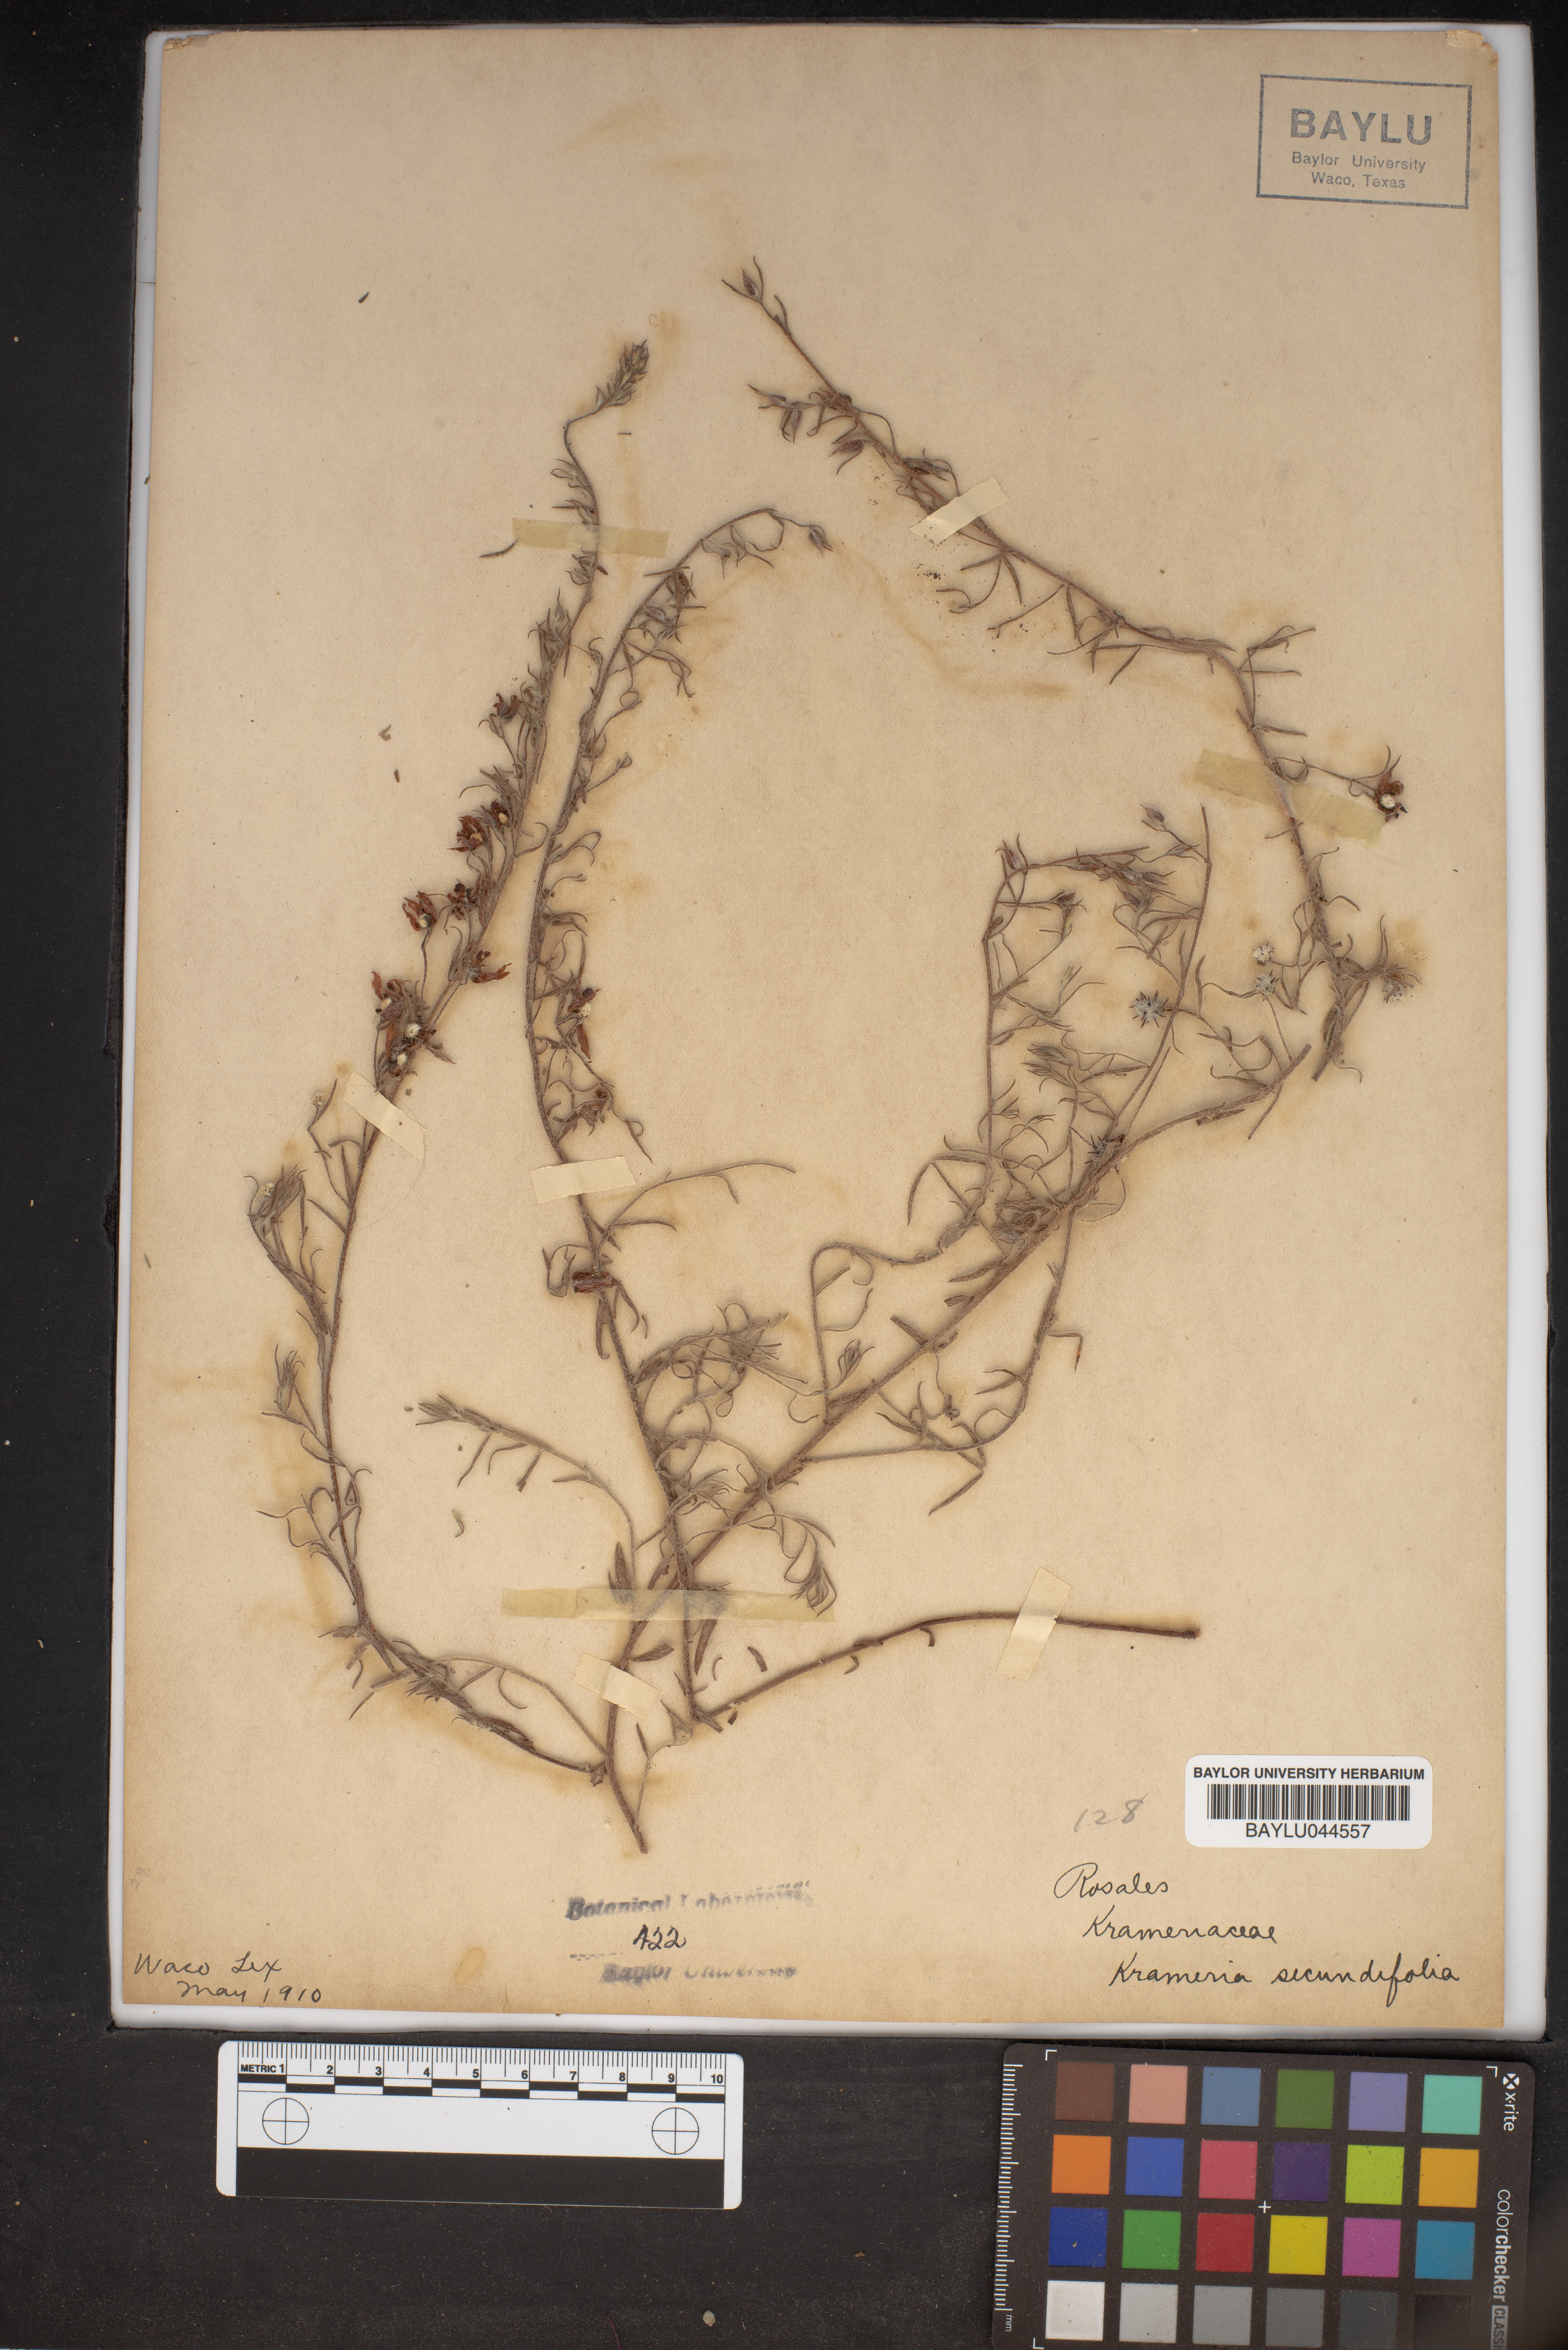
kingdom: Plantae
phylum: Tracheophyta
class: Magnoliopsida
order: Zygophyllales
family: Krameriaceae
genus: Krameria
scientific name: Krameria secundiflora
